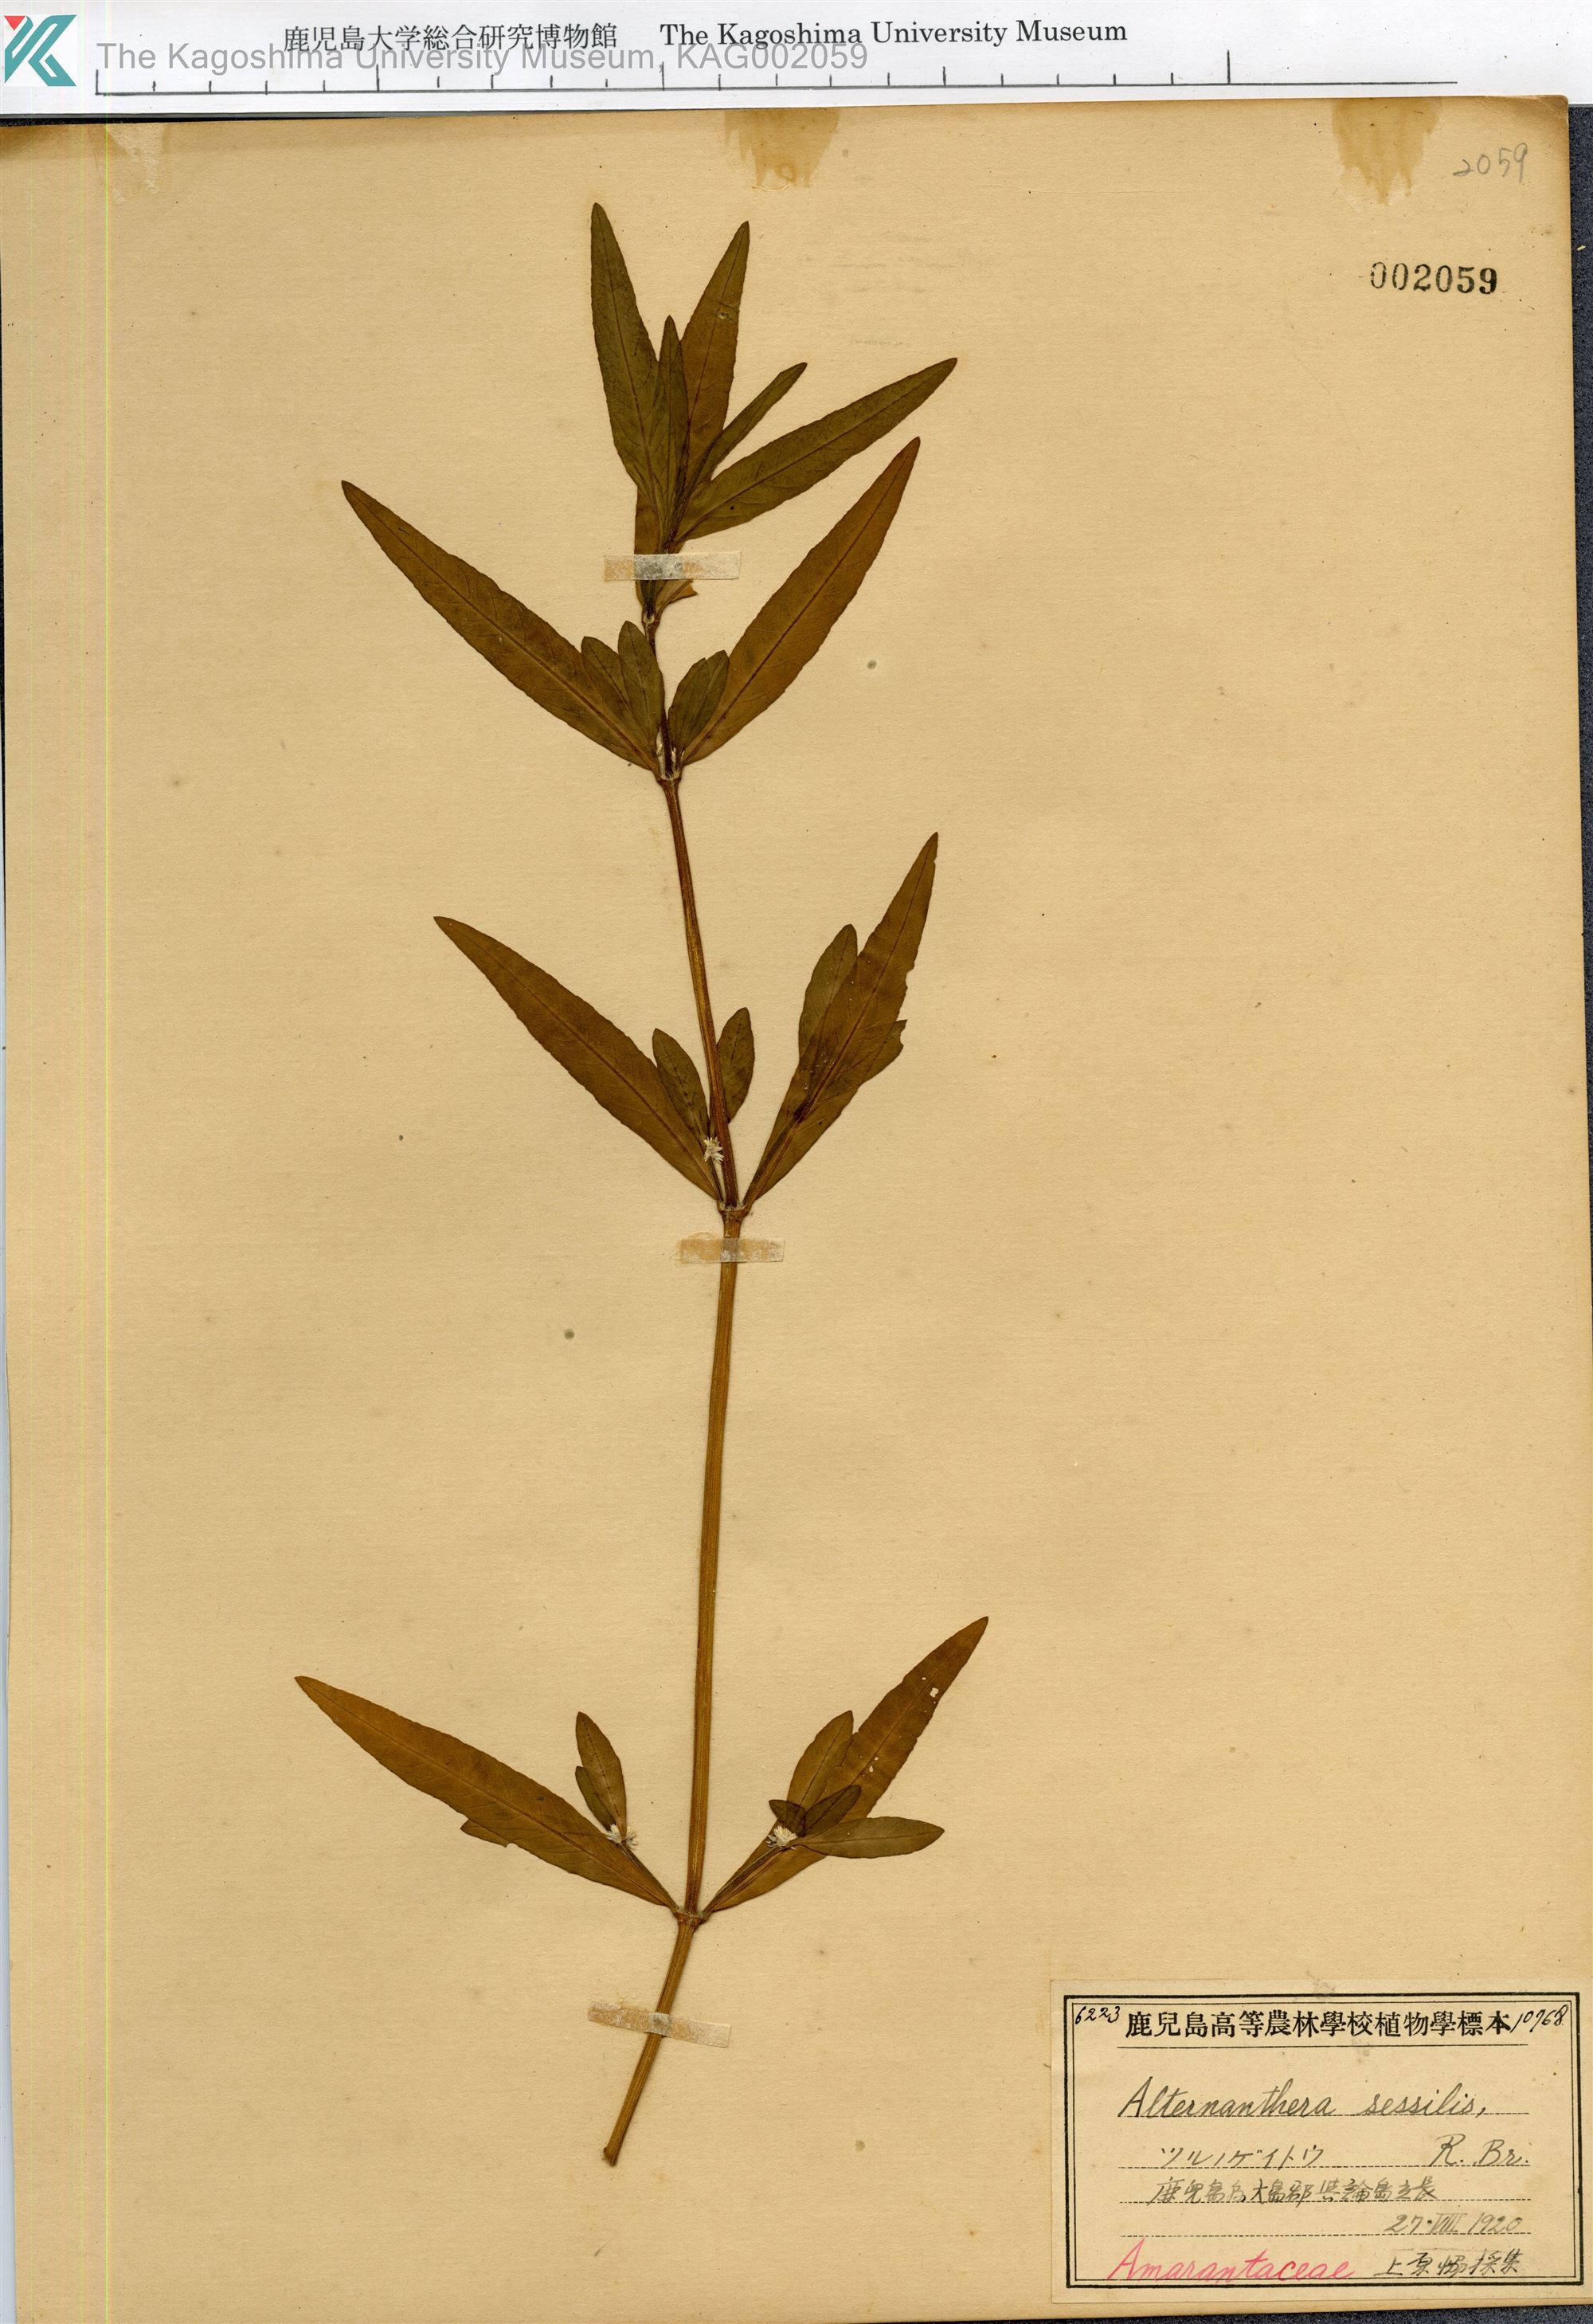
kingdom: Plantae
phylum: Tracheophyta
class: Magnoliopsida
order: Caryophyllales
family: Amaranthaceae
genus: Alternanthera
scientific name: Alternanthera sessilis
